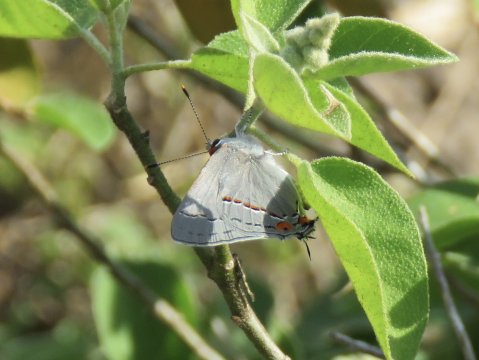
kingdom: Animalia
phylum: Arthropoda
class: Insecta
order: Lepidoptera
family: Lycaenidae
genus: Strymon
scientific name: Strymon melinus
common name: Gray Hairstreak
